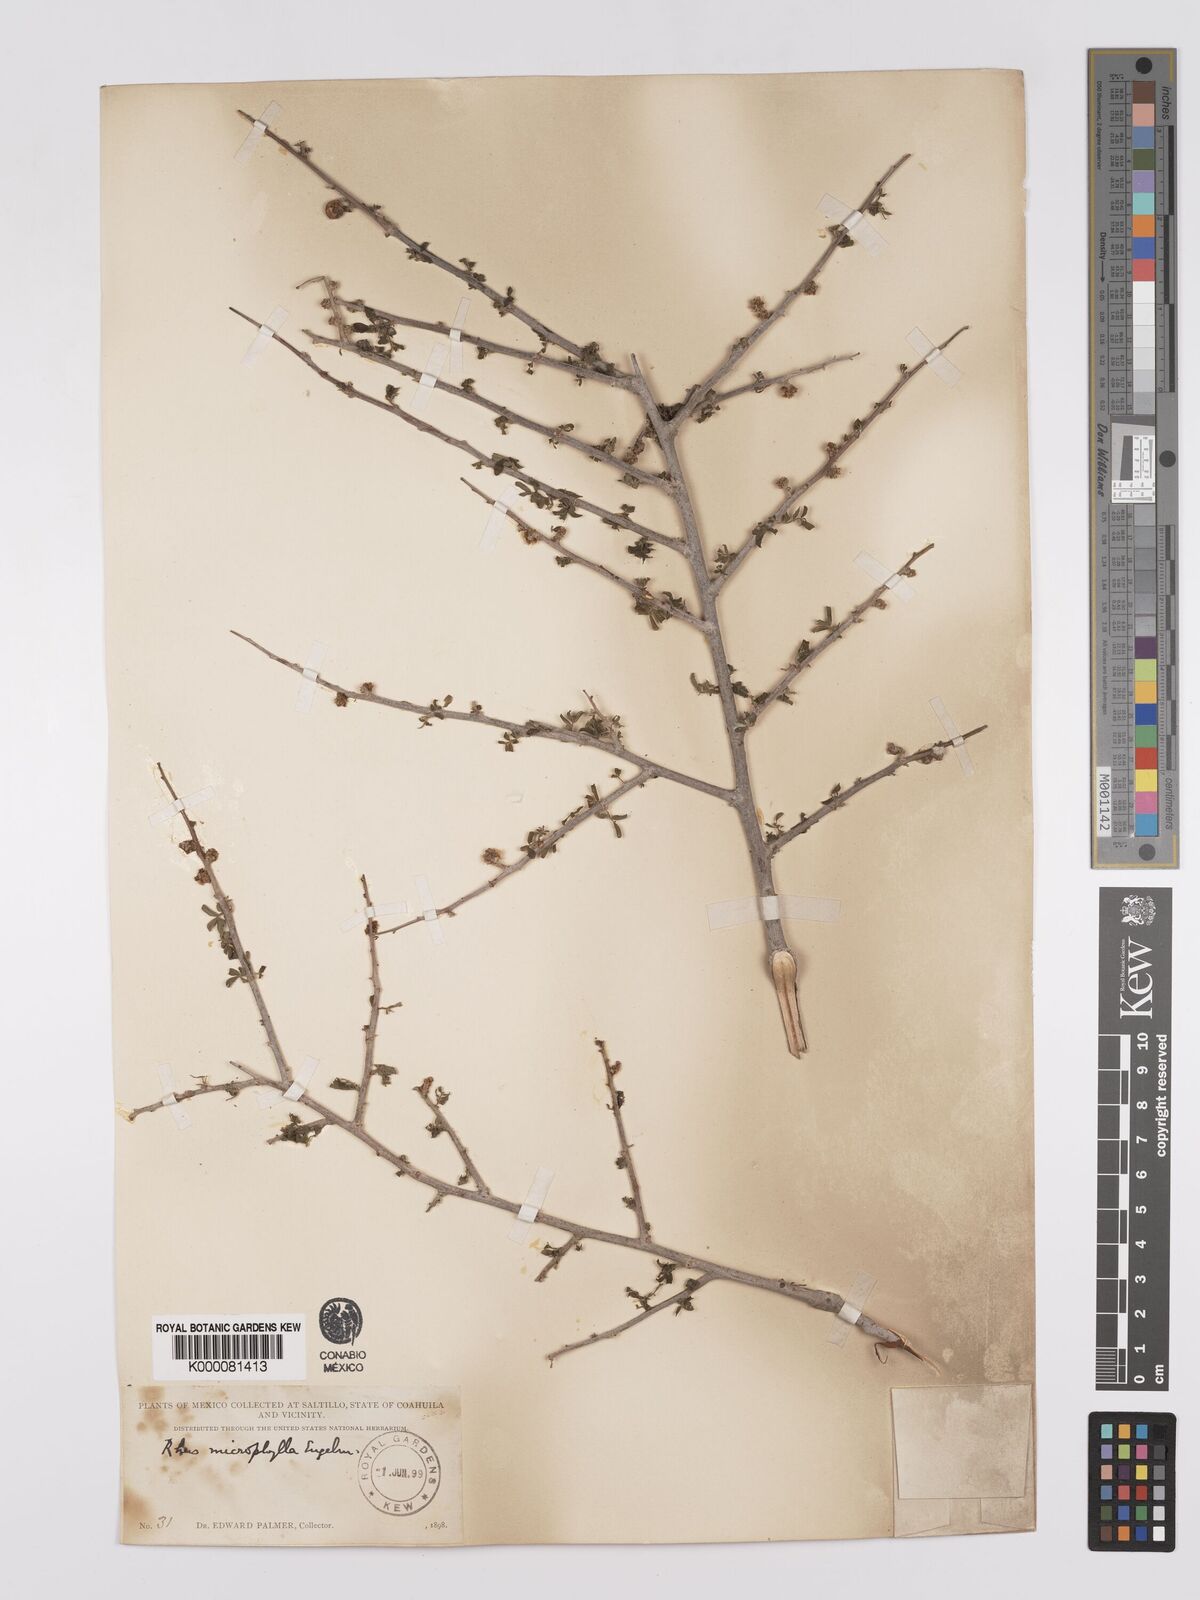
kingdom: Plantae
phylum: Tracheophyta
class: Magnoliopsida
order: Sapindales
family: Anacardiaceae
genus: Rhus
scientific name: Rhus
